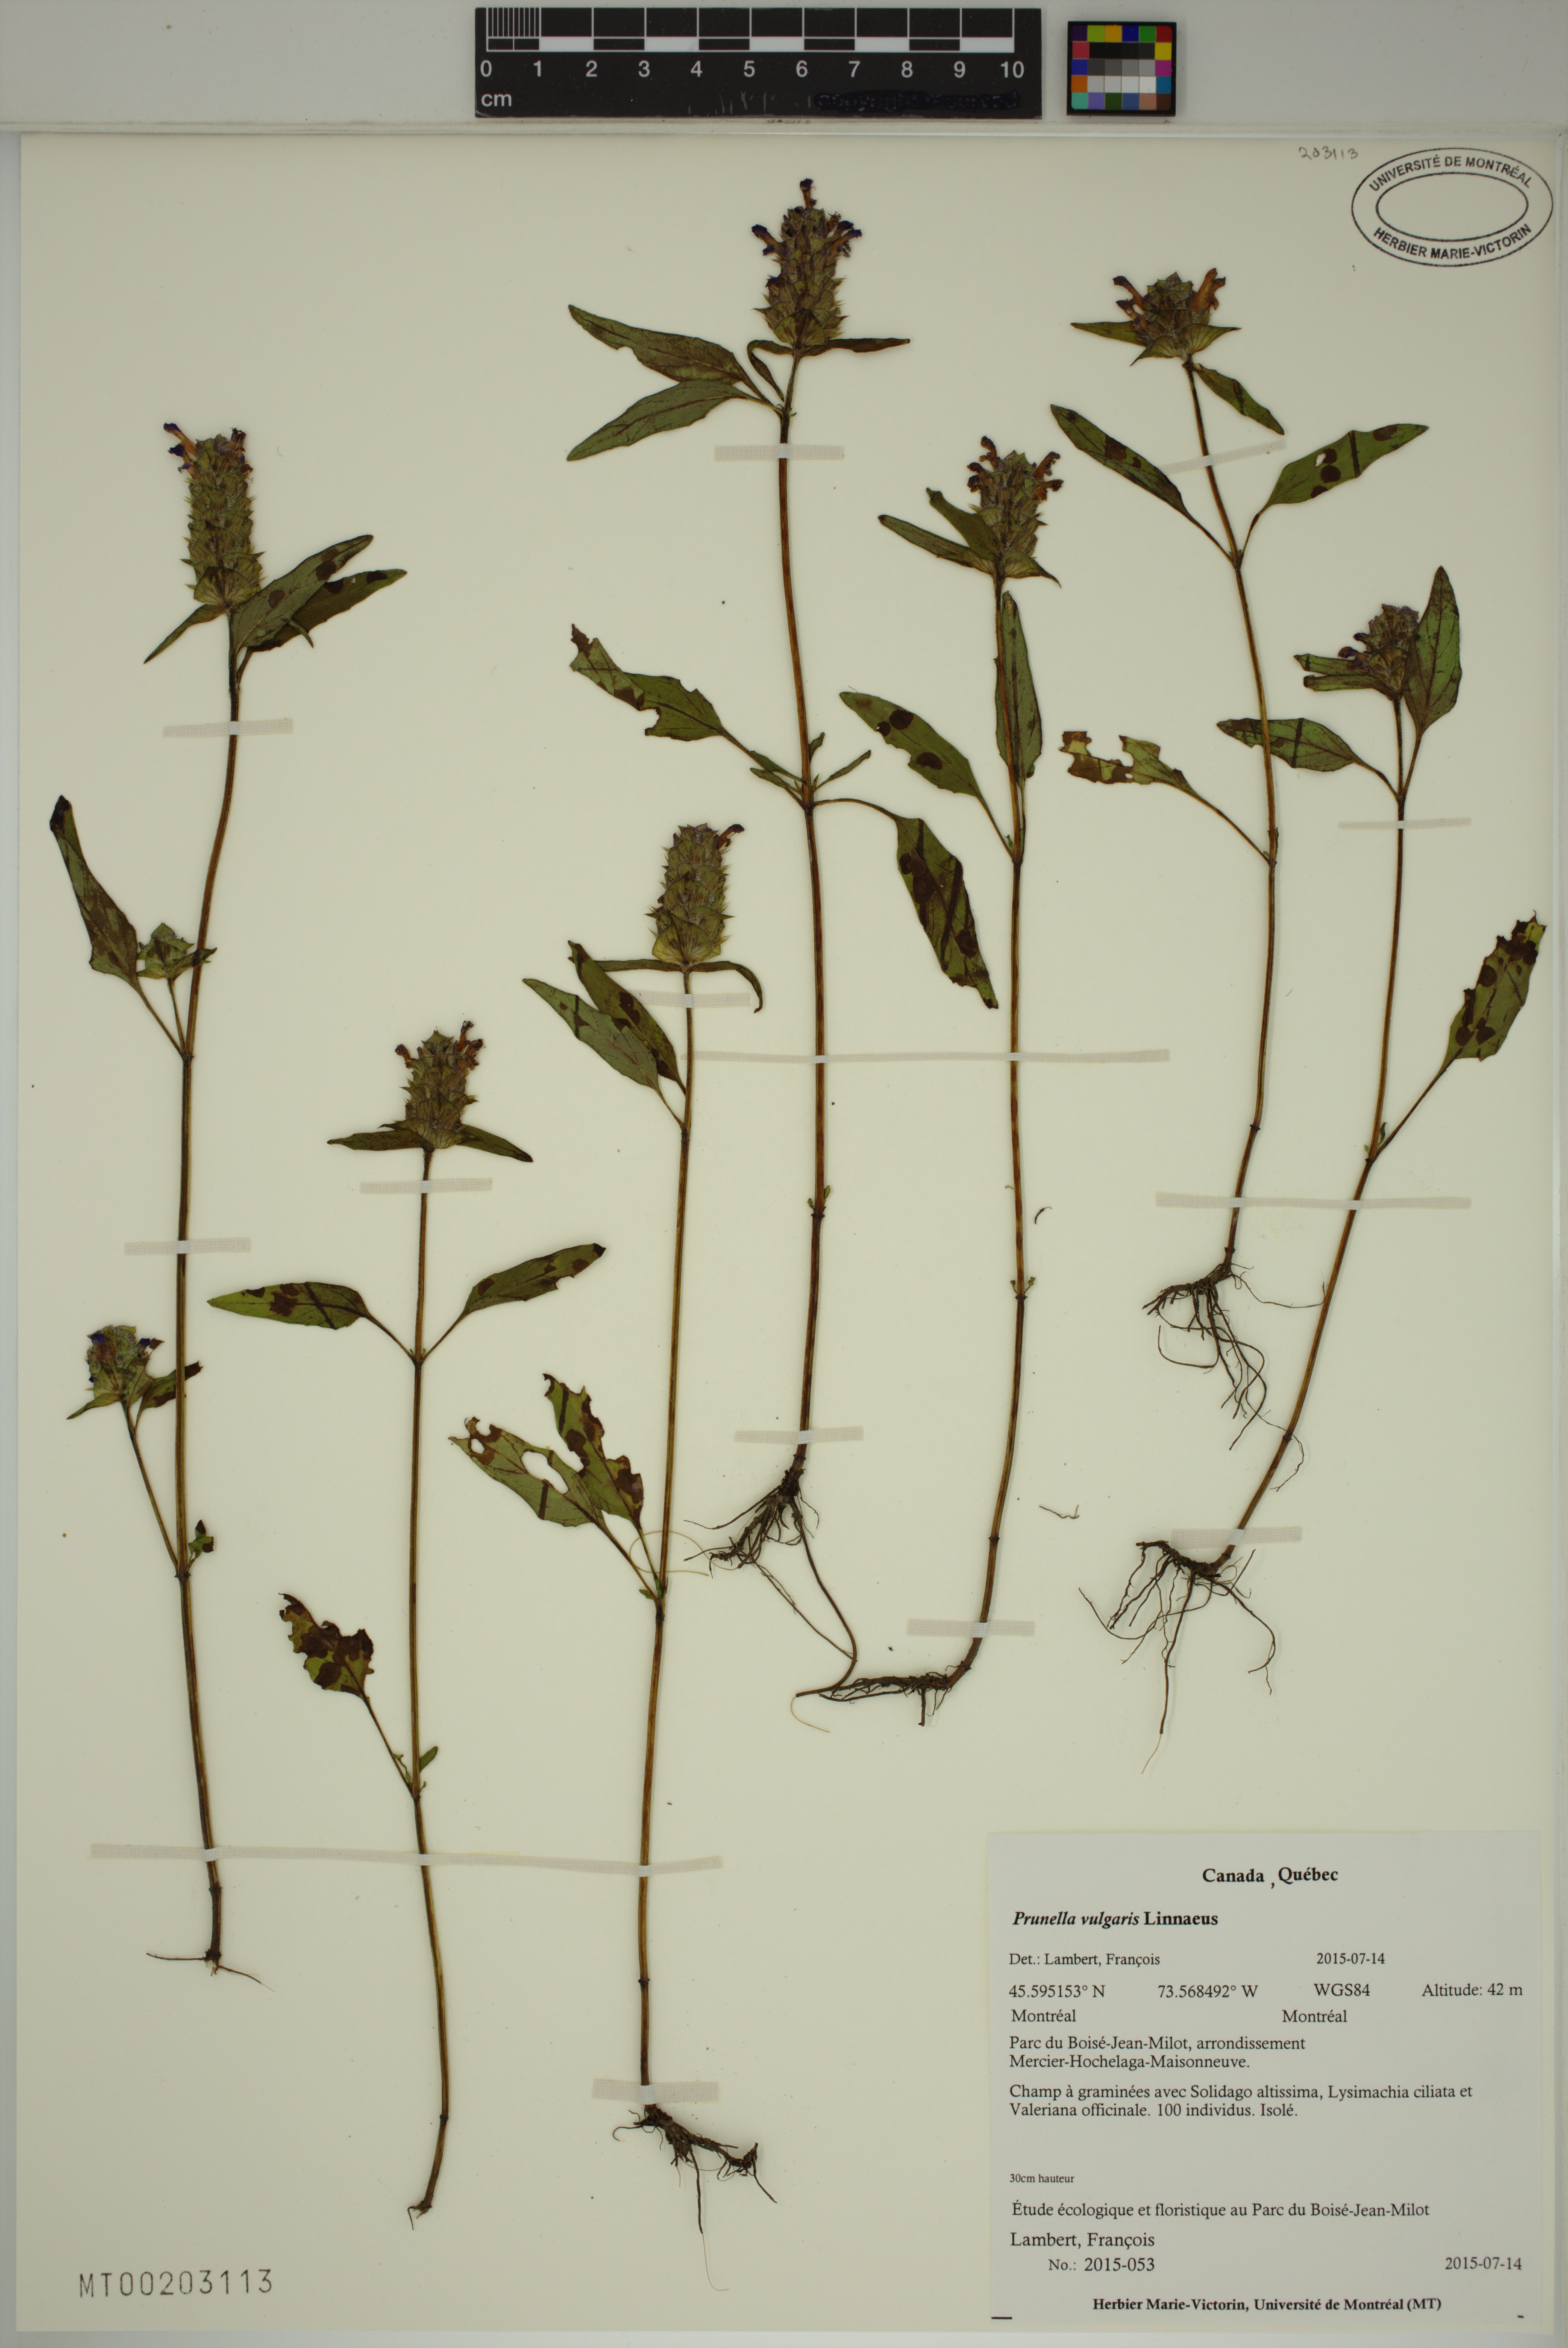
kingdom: Plantae
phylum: Tracheophyta
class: Magnoliopsida
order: Lamiales
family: Lamiaceae
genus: Prunella
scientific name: Prunella vulgaris
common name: Heal-all
